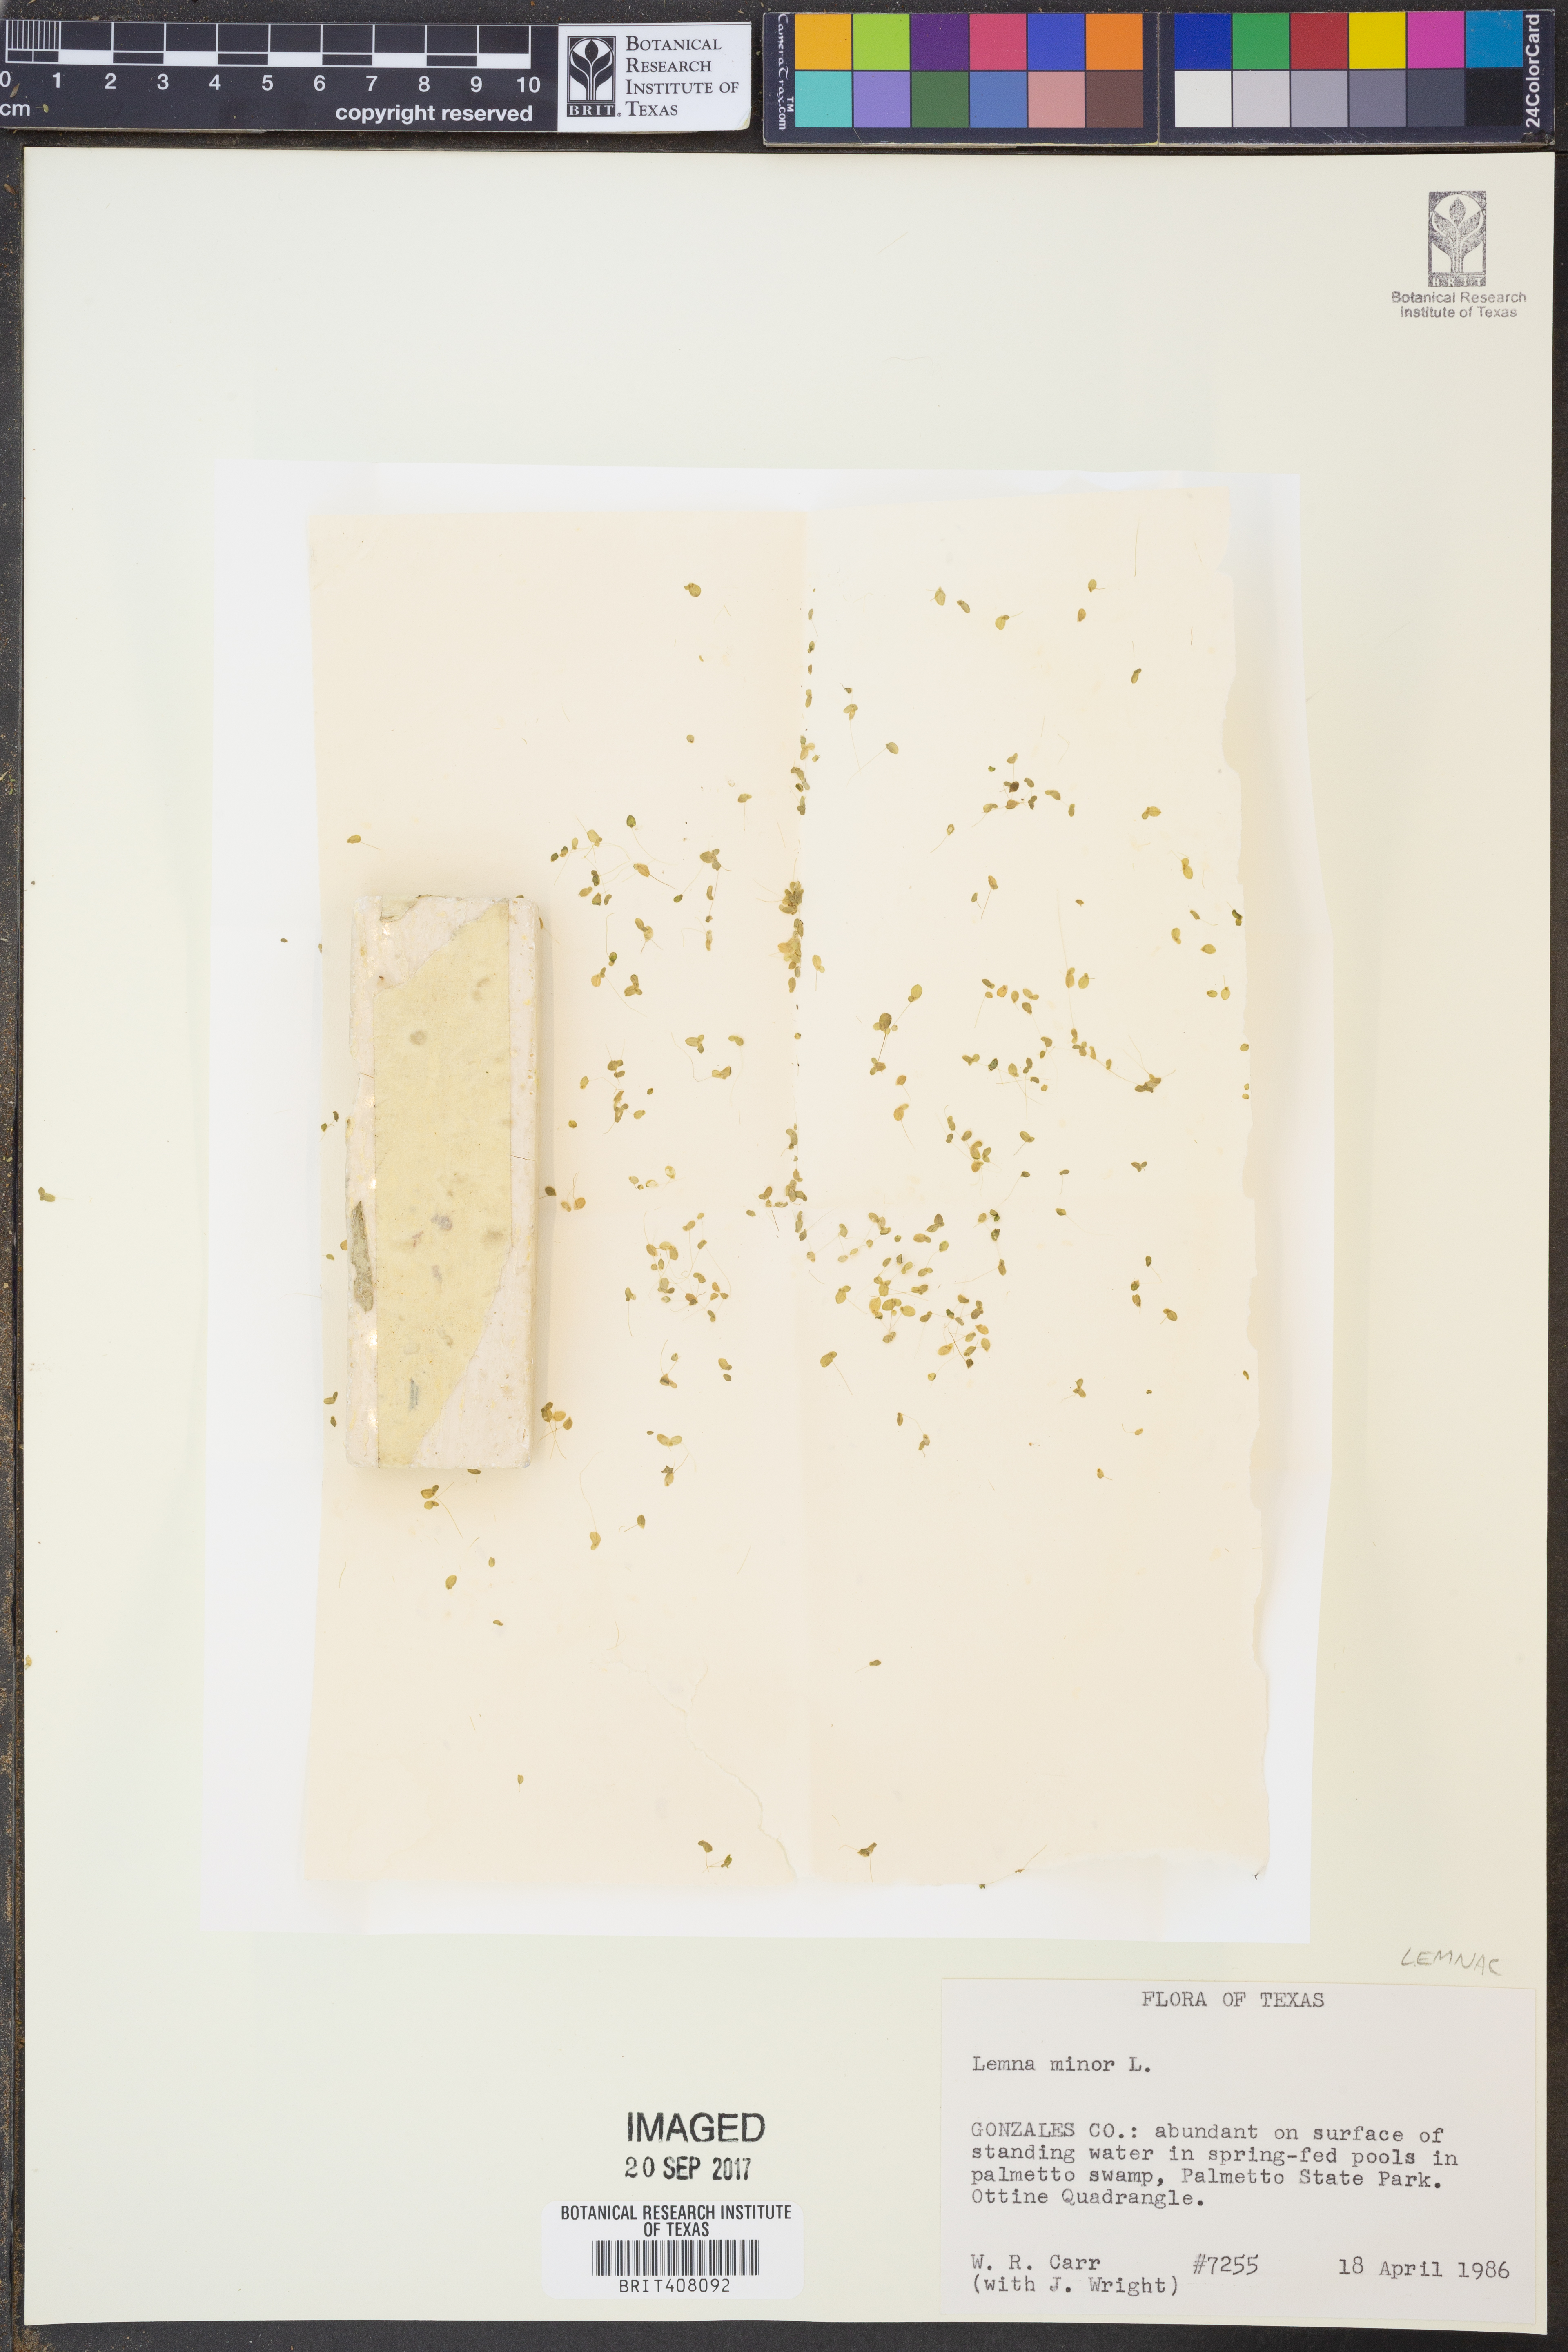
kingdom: Plantae
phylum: Tracheophyta
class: Liliopsida
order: Alismatales
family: Araceae
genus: Lemna
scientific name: Lemna minor
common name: Common duckweed
